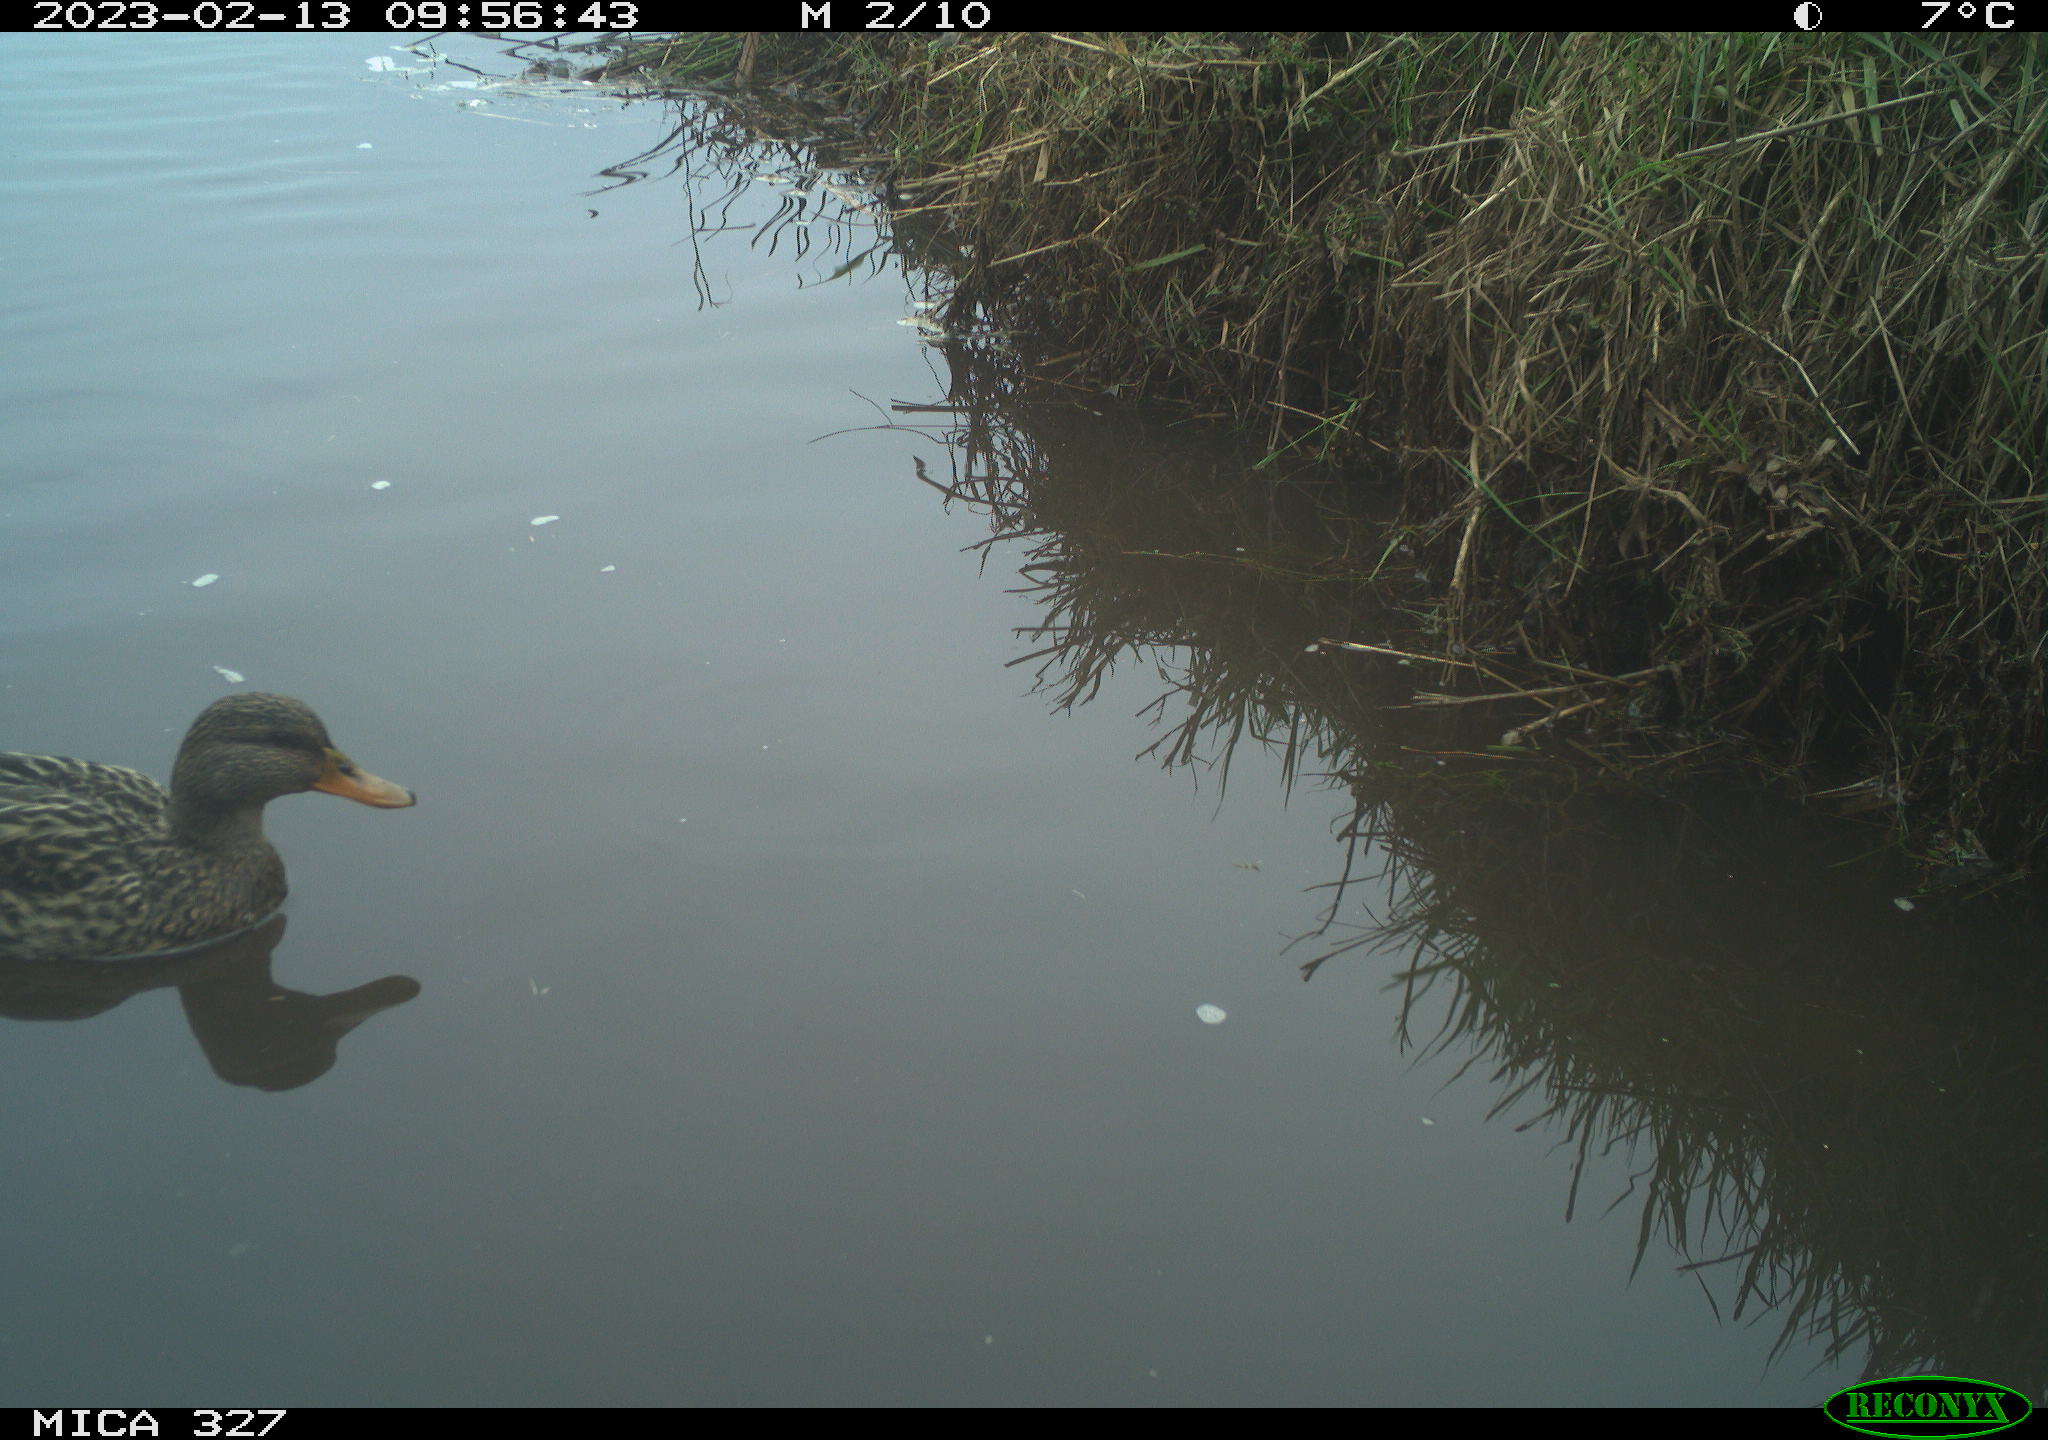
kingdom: Animalia
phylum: Chordata
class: Aves
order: Anseriformes
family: Anatidae
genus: Anas
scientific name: Anas
